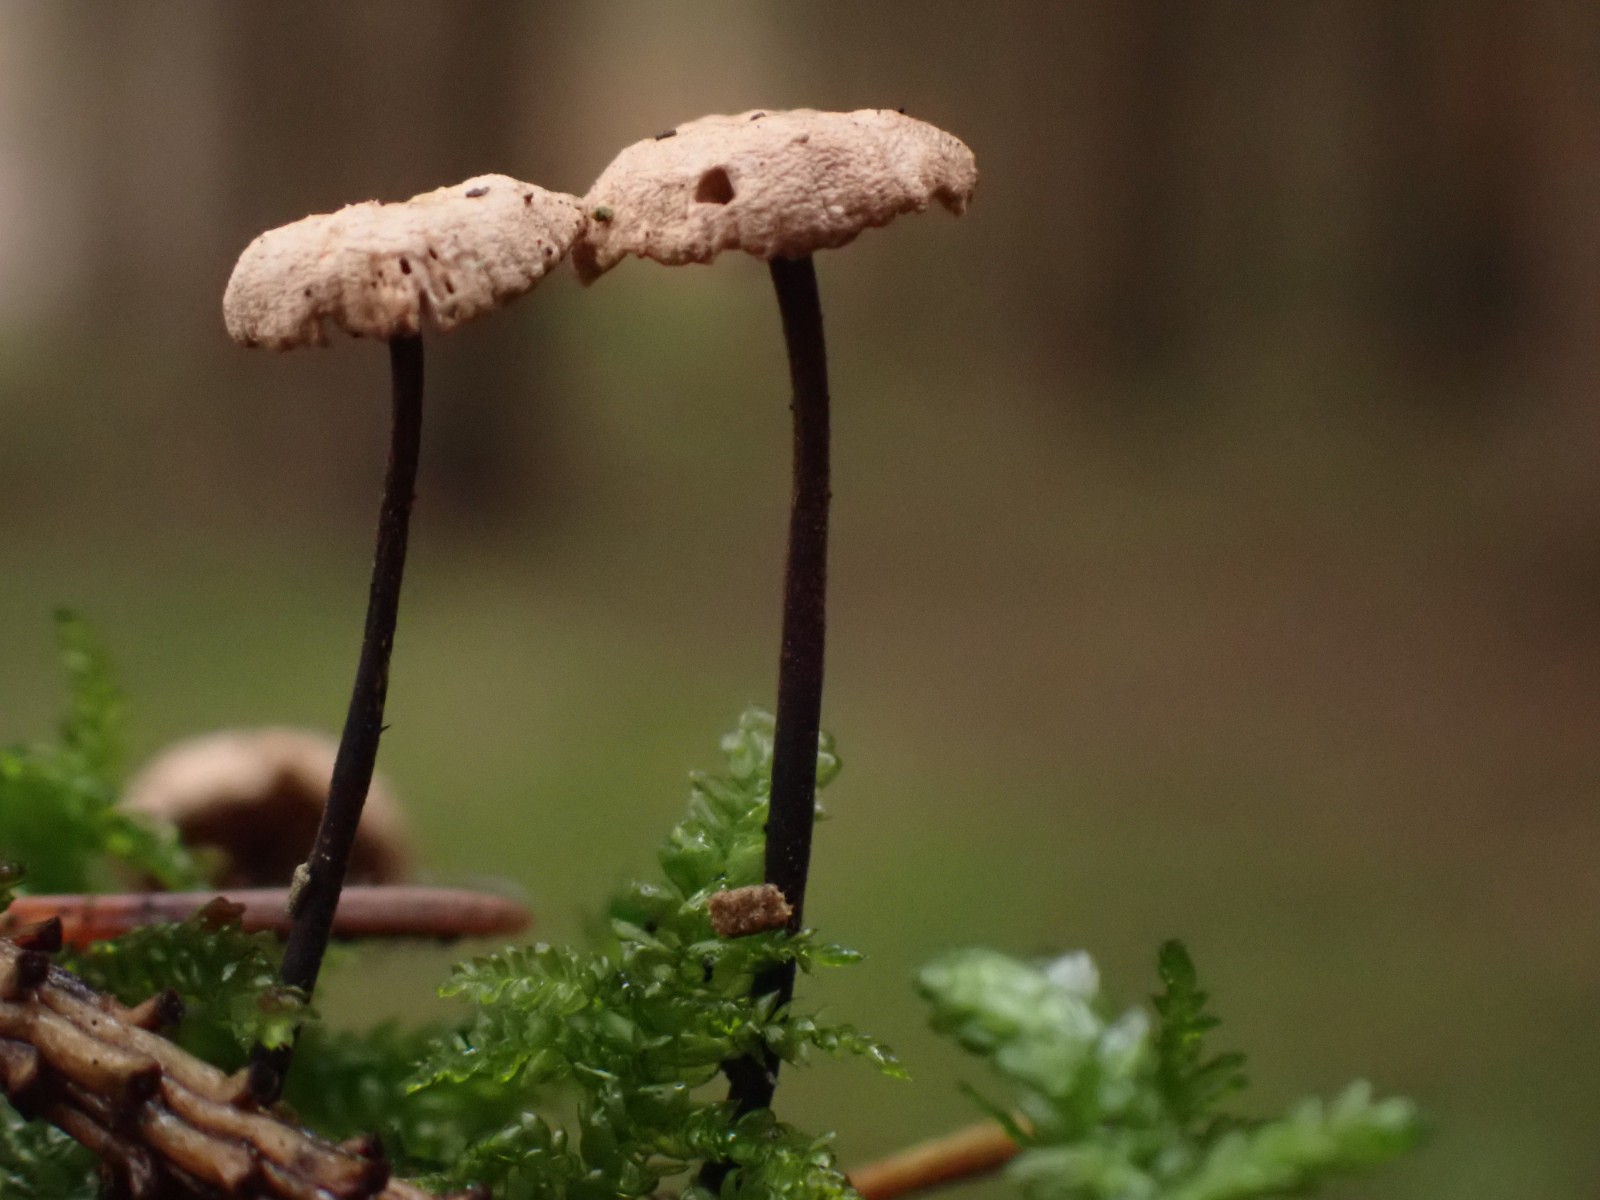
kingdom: Fungi
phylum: Basidiomycota
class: Agaricomycetes
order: Agaricales
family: Omphalotaceae
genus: Paragymnopus
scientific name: Paragymnopus perforans
